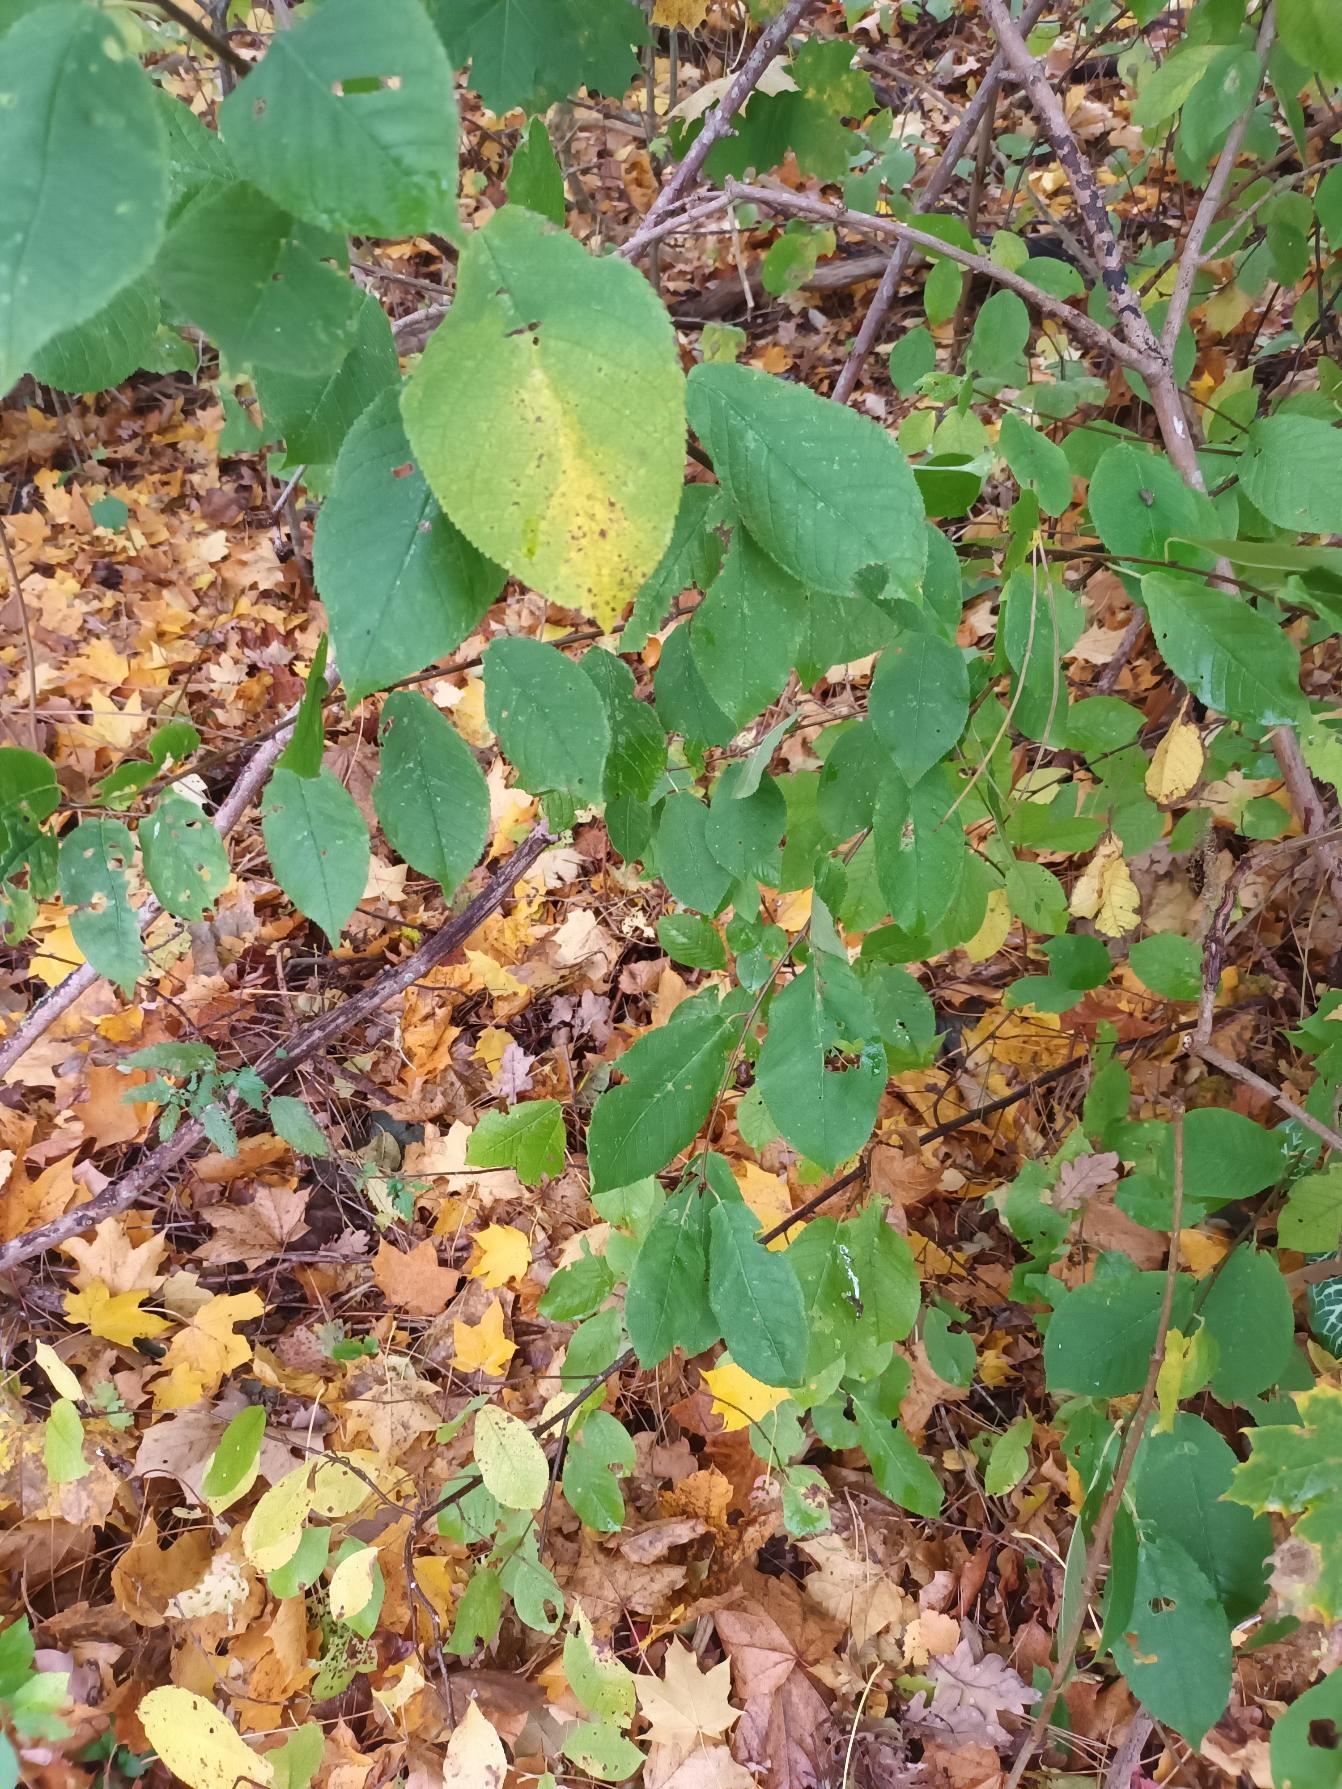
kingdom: Plantae
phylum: Tracheophyta
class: Magnoliopsida
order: Rosales
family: Rosaceae
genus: Prunus
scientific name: Prunus padus
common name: Almindelig hæg
